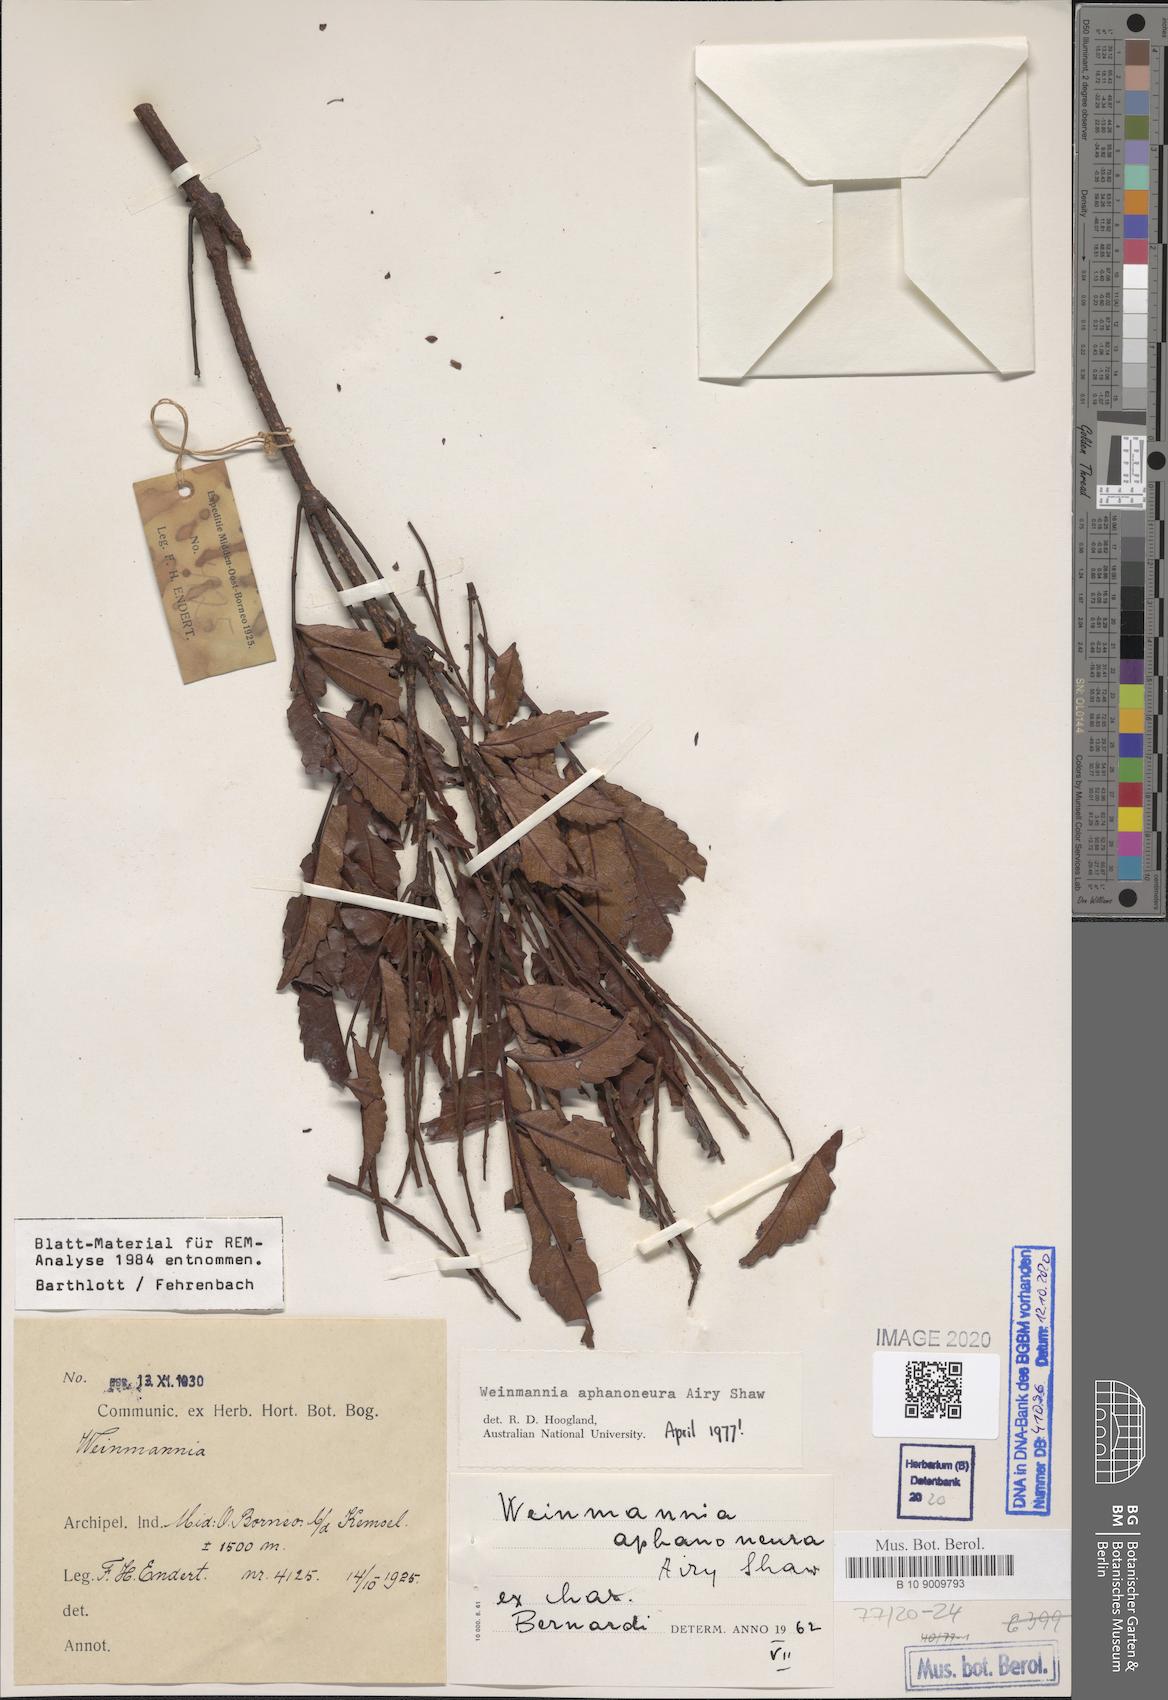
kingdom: Plantae
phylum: Tracheophyta
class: Magnoliopsida
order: Oxalidales
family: Cunoniaceae
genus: Pterophylla
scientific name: Pterophylla aphanoneura
